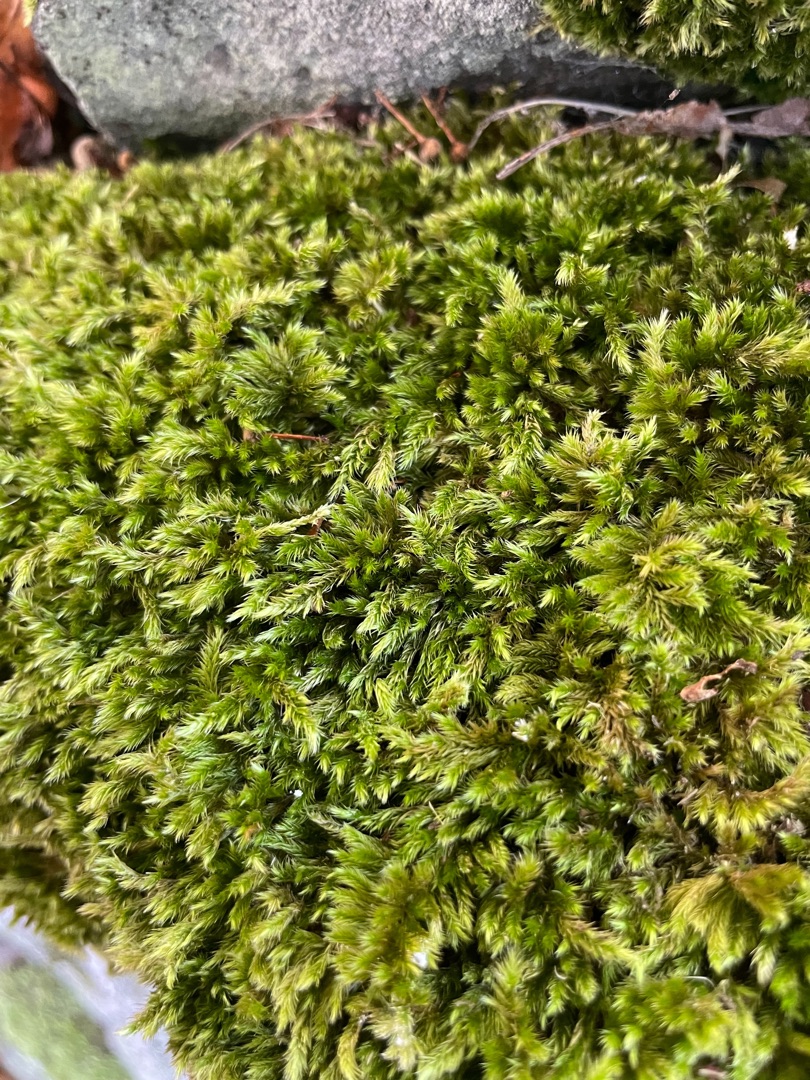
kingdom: Plantae
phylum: Bryophyta
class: Bryopsida
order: Hypnales
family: Brachytheciaceae
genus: Homalothecium
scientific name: Homalothecium sericeum
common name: Krybende silkemos
